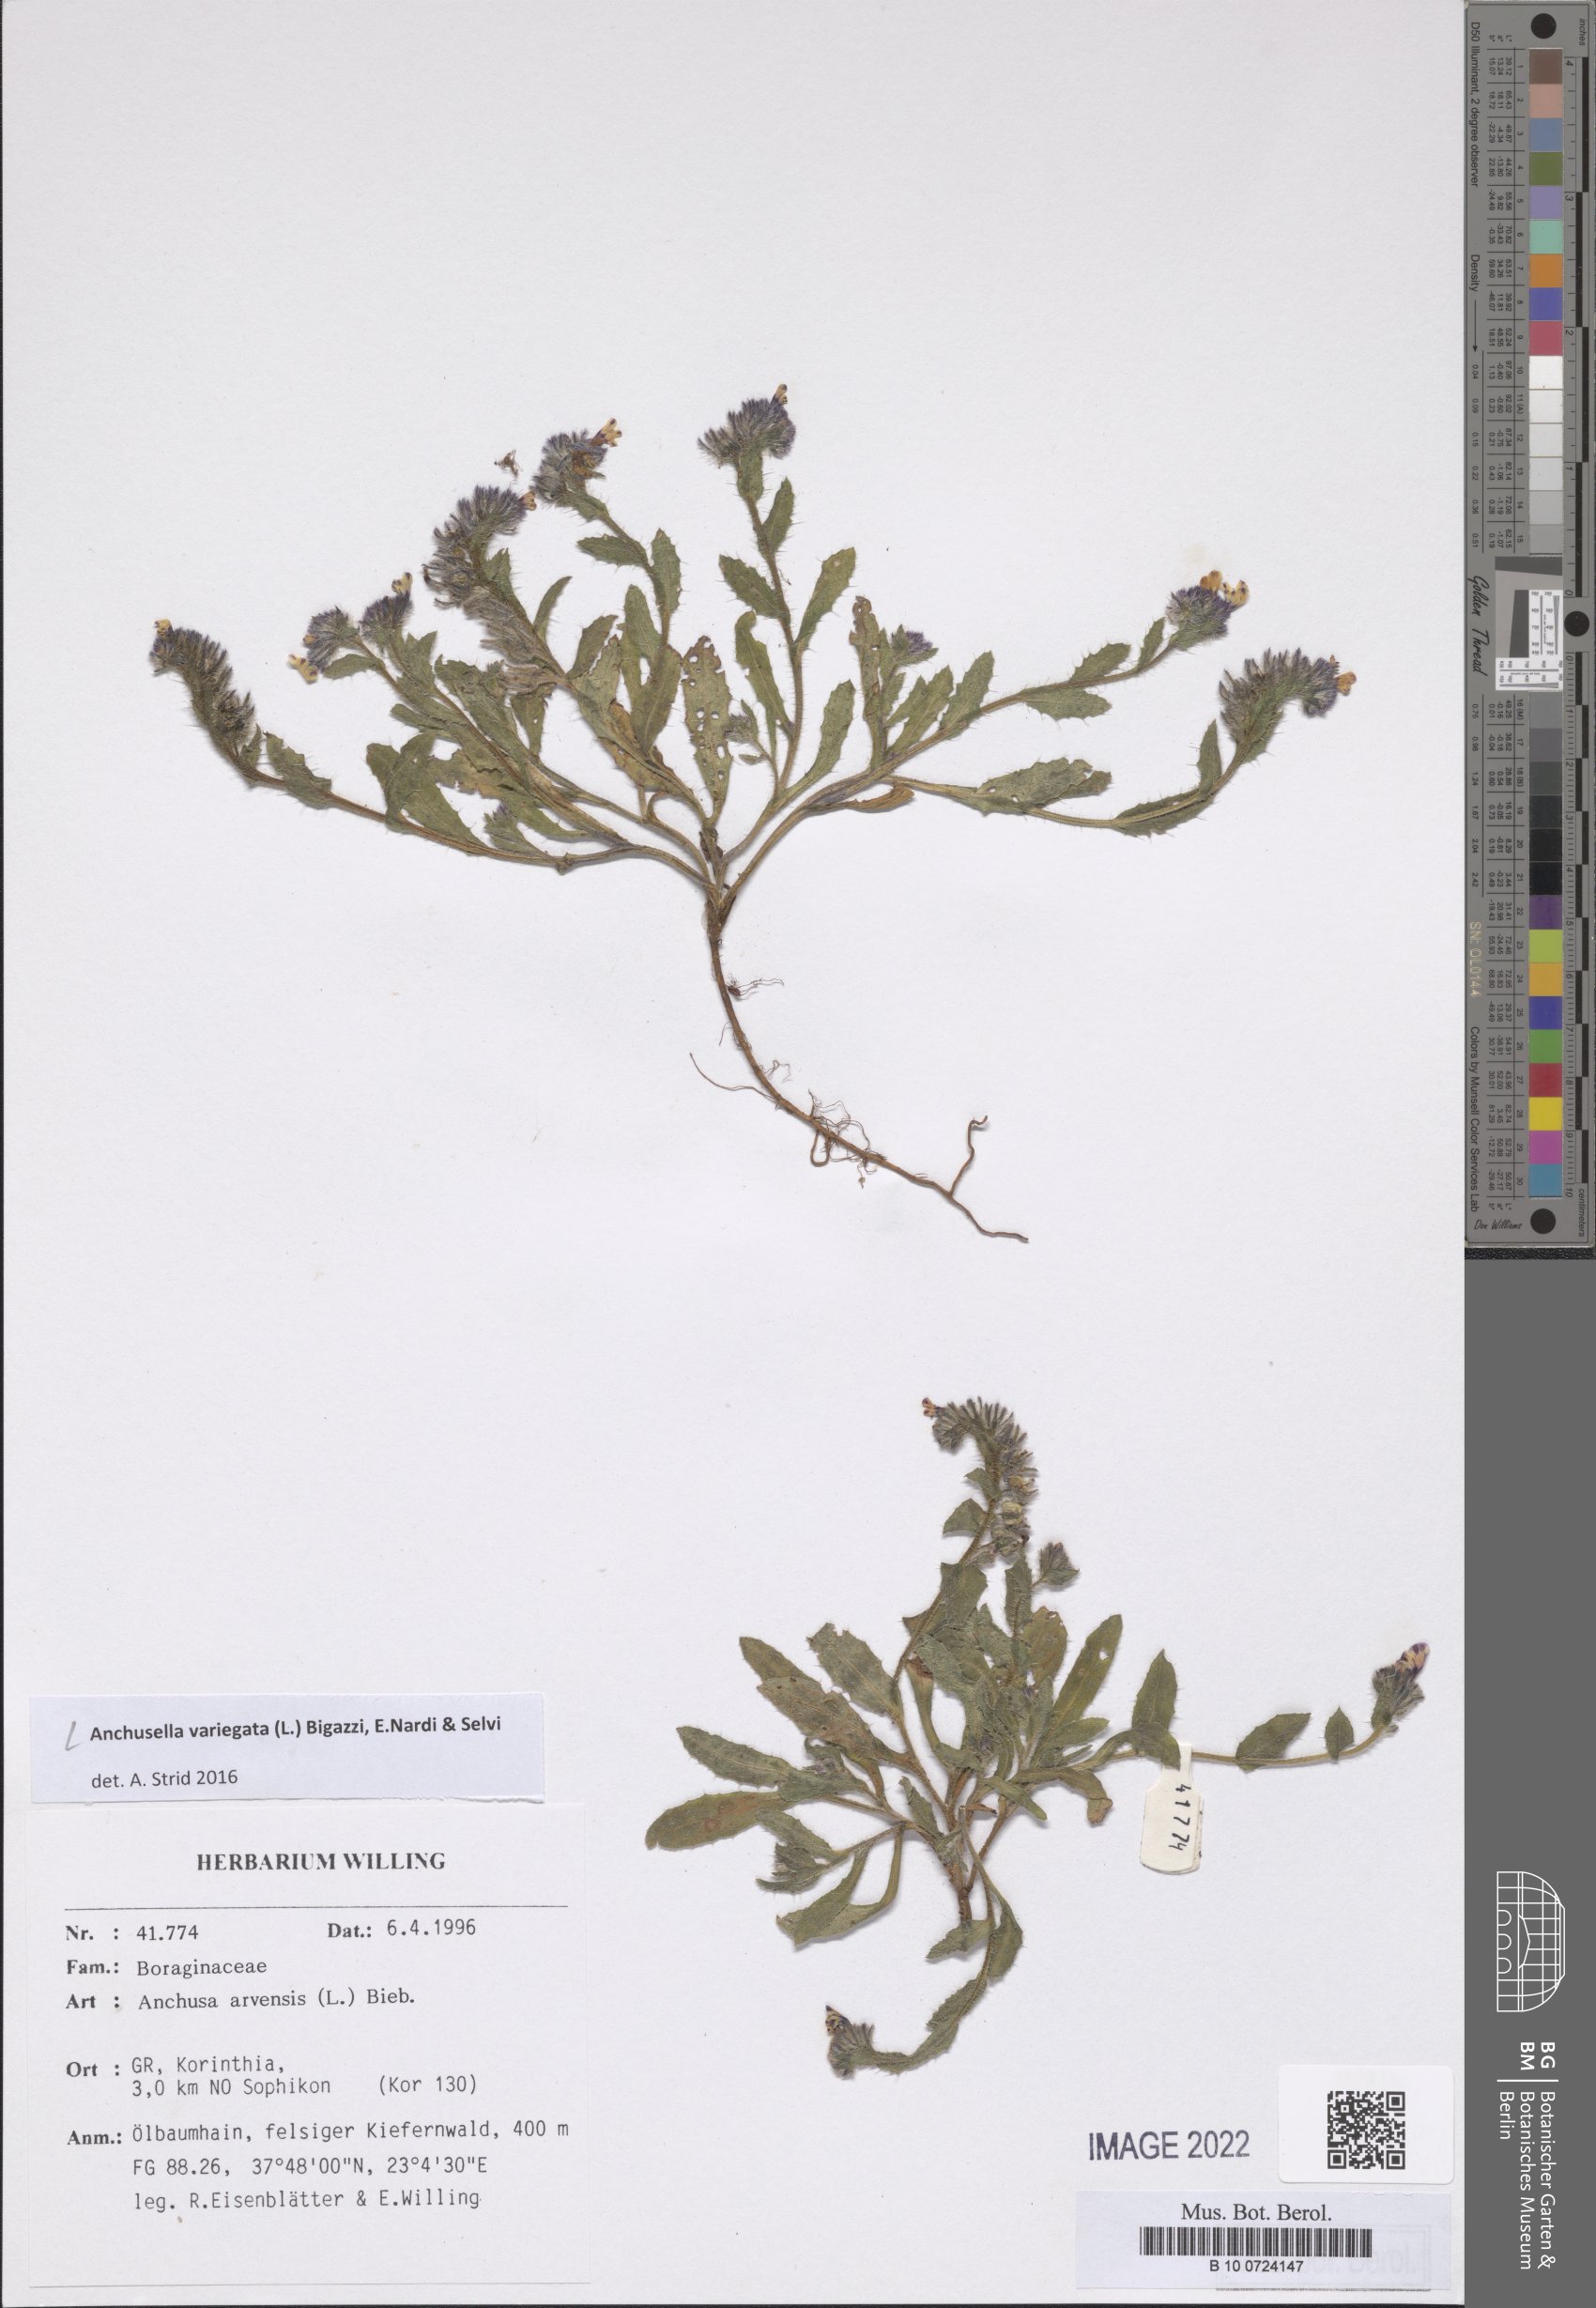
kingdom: Plantae
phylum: Tracheophyta
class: Magnoliopsida
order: Boraginales
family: Boraginaceae
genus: Anchusella
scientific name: Anchusella variegata
